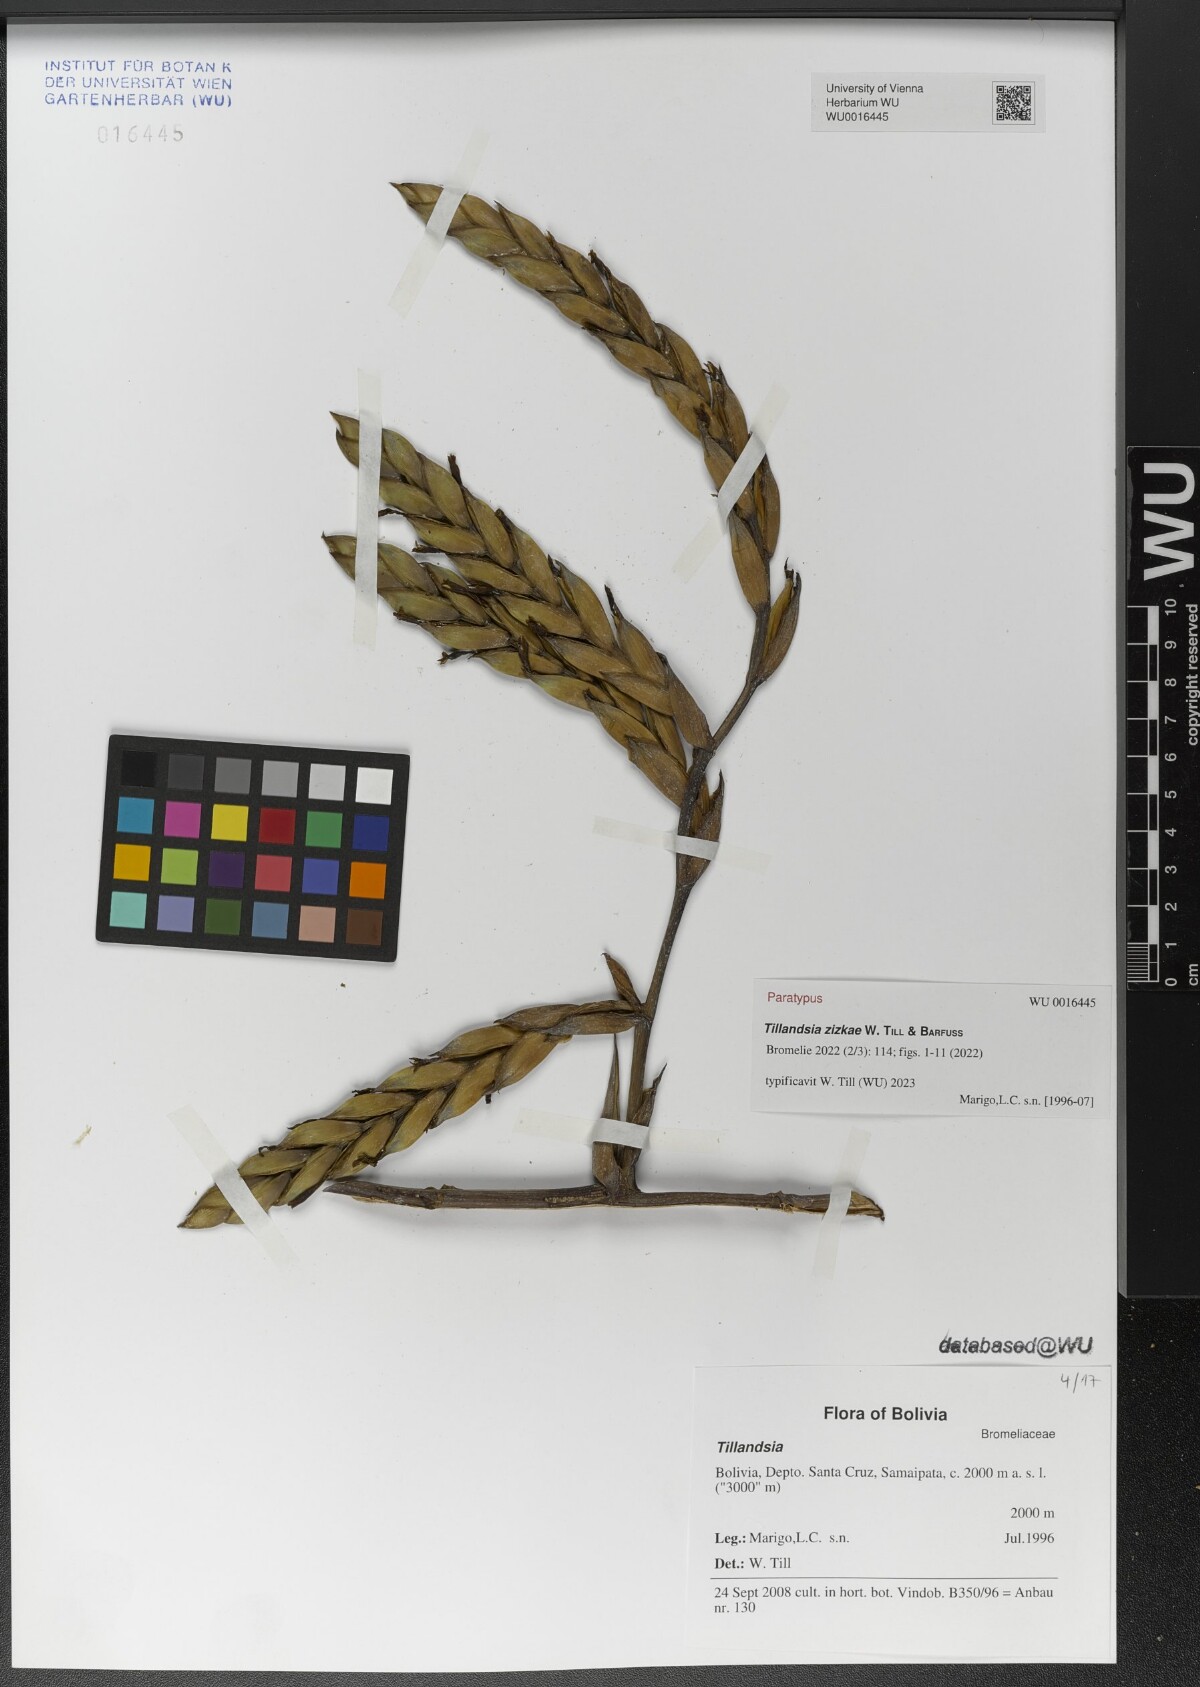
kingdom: Plantae
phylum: Tracheophyta
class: Liliopsida
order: Poales
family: Bromeliaceae
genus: Tillandsia
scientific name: Tillandsia
